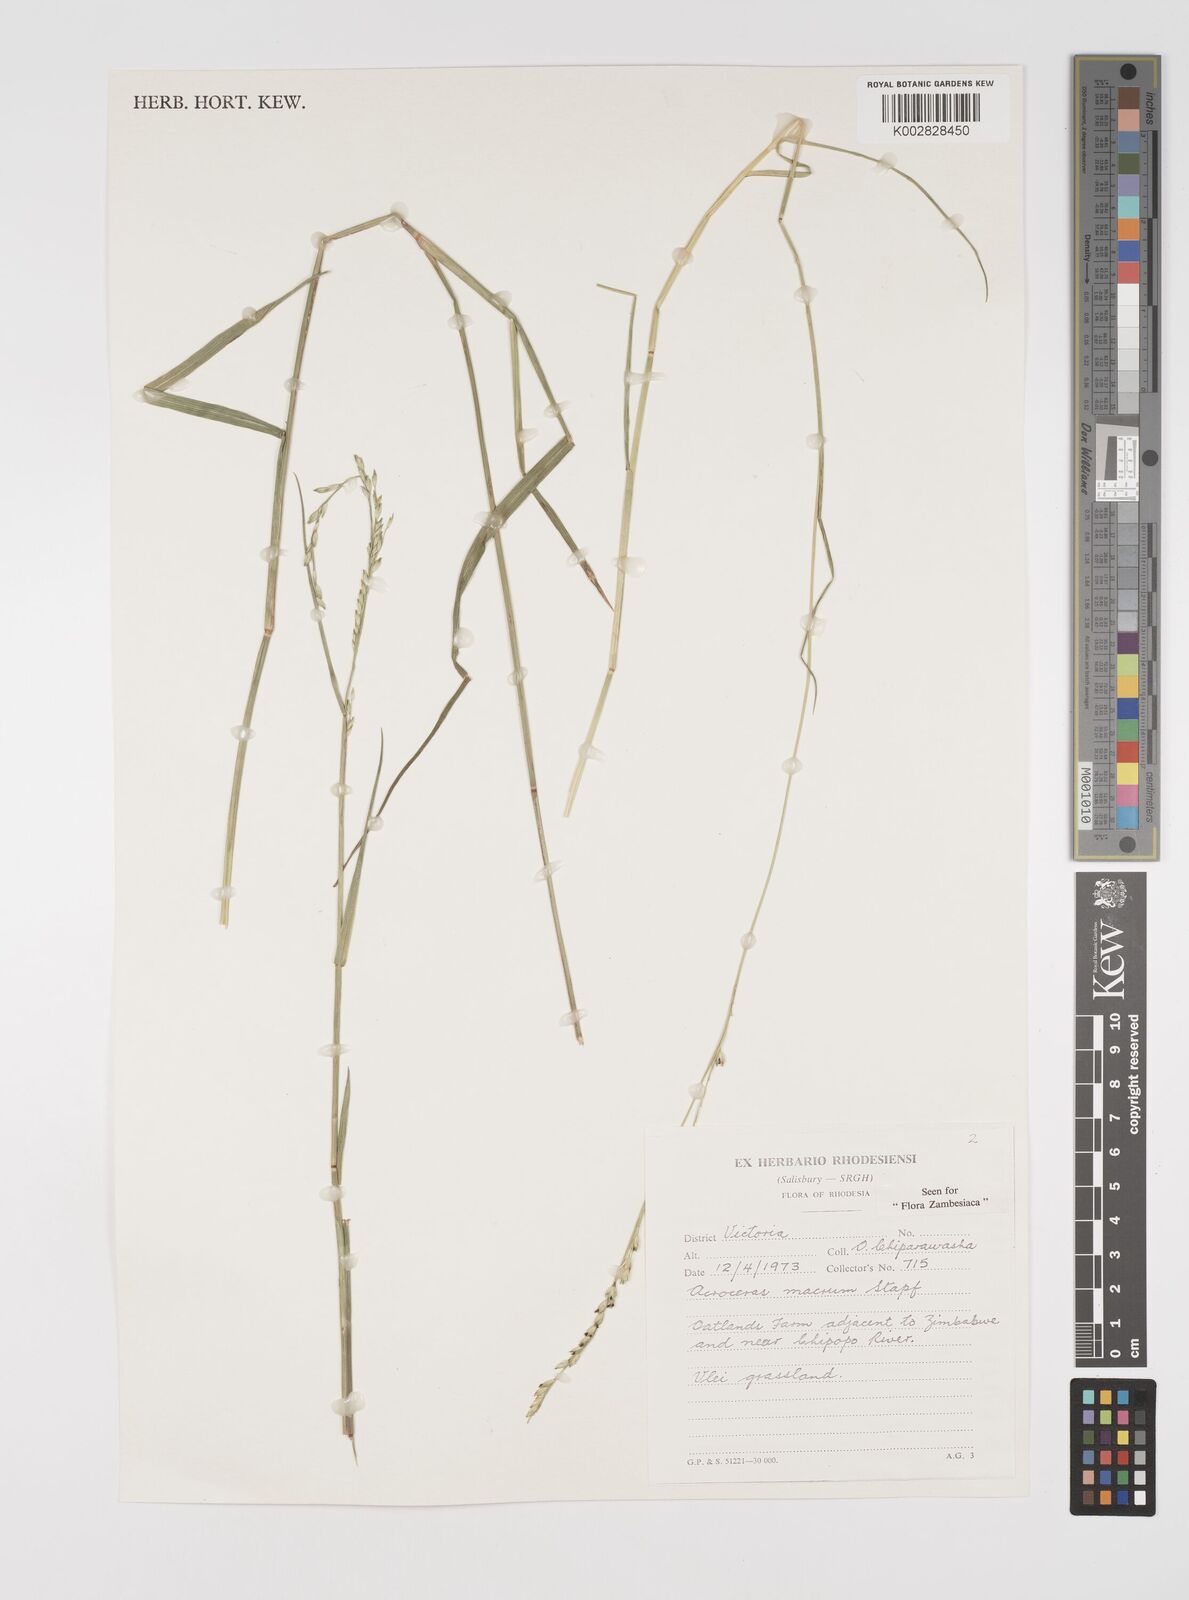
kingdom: Plantae
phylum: Tracheophyta
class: Liliopsida
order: Poales
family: Poaceae
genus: Acroceras
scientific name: Acroceras macrum
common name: Nyl grass
